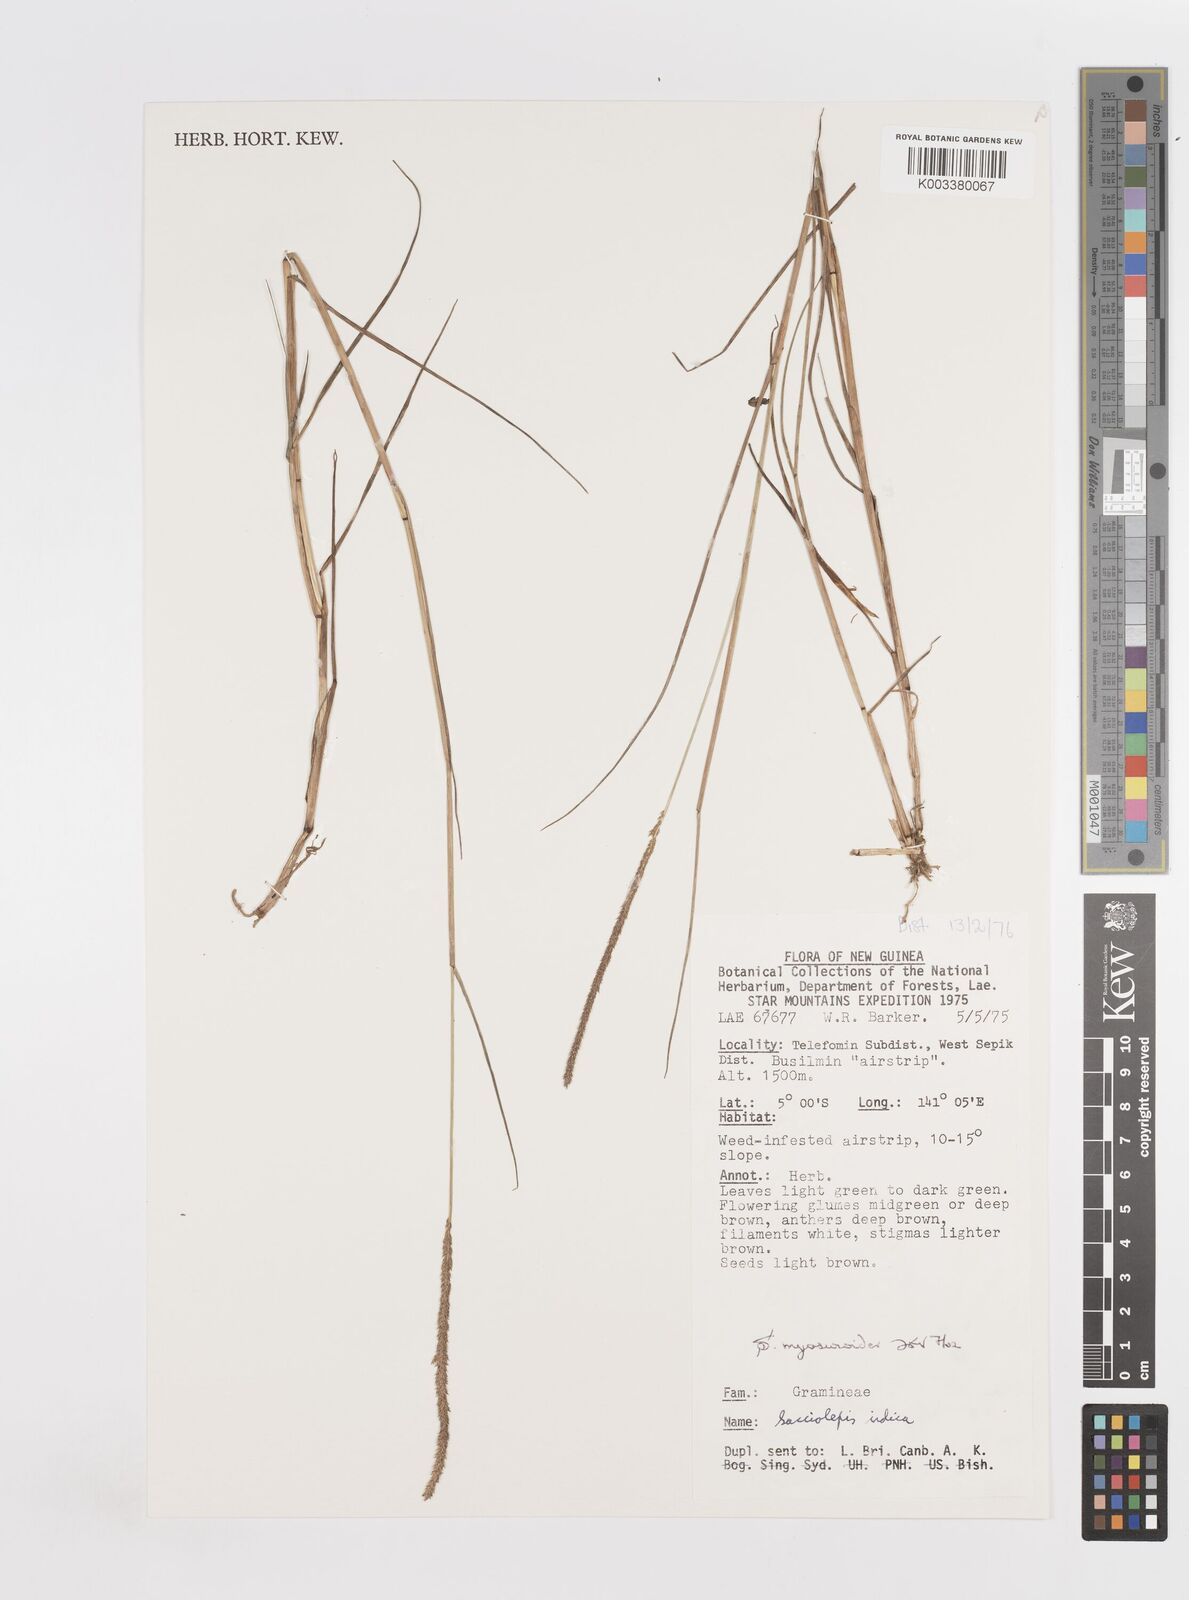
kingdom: Plantae
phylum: Tracheophyta
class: Liliopsida
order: Poales
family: Poaceae
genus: Sacciolepis
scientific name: Sacciolepis myosuroides
